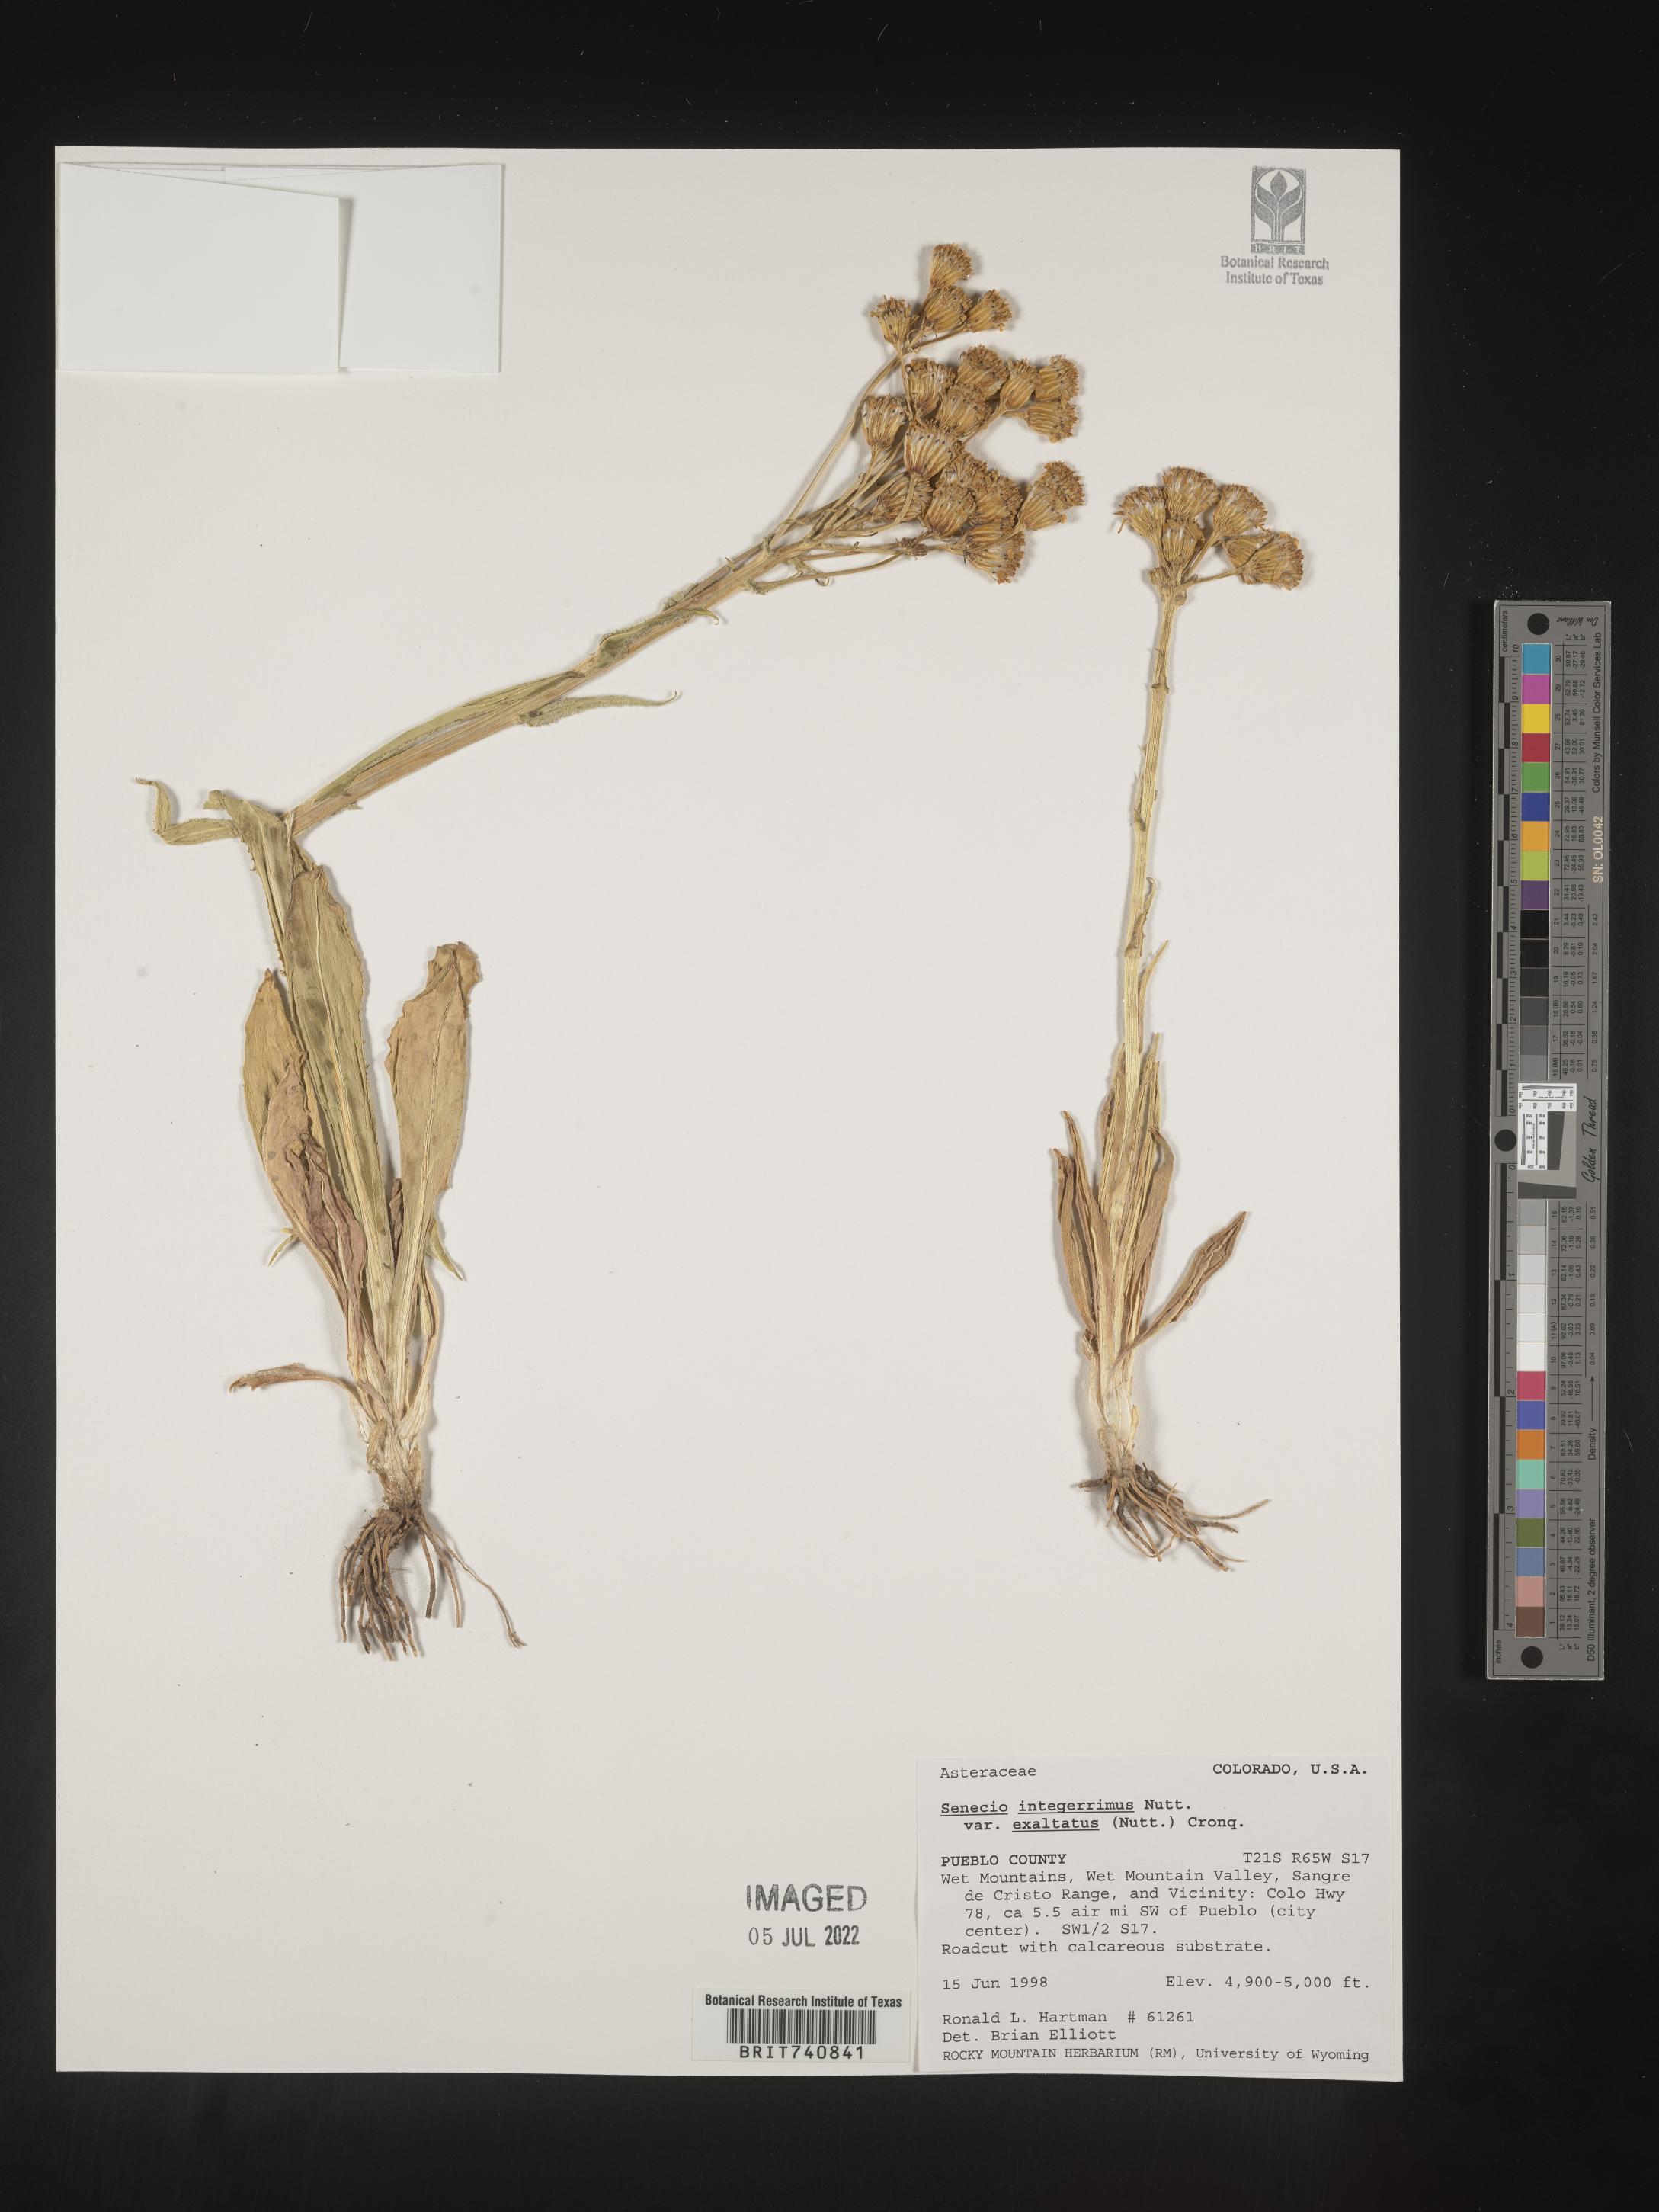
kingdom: Plantae
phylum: Tracheophyta
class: Magnoliopsida
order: Asterales
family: Asteraceae
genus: Senecio
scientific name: Senecio integerrimus
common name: Gaugeplant
